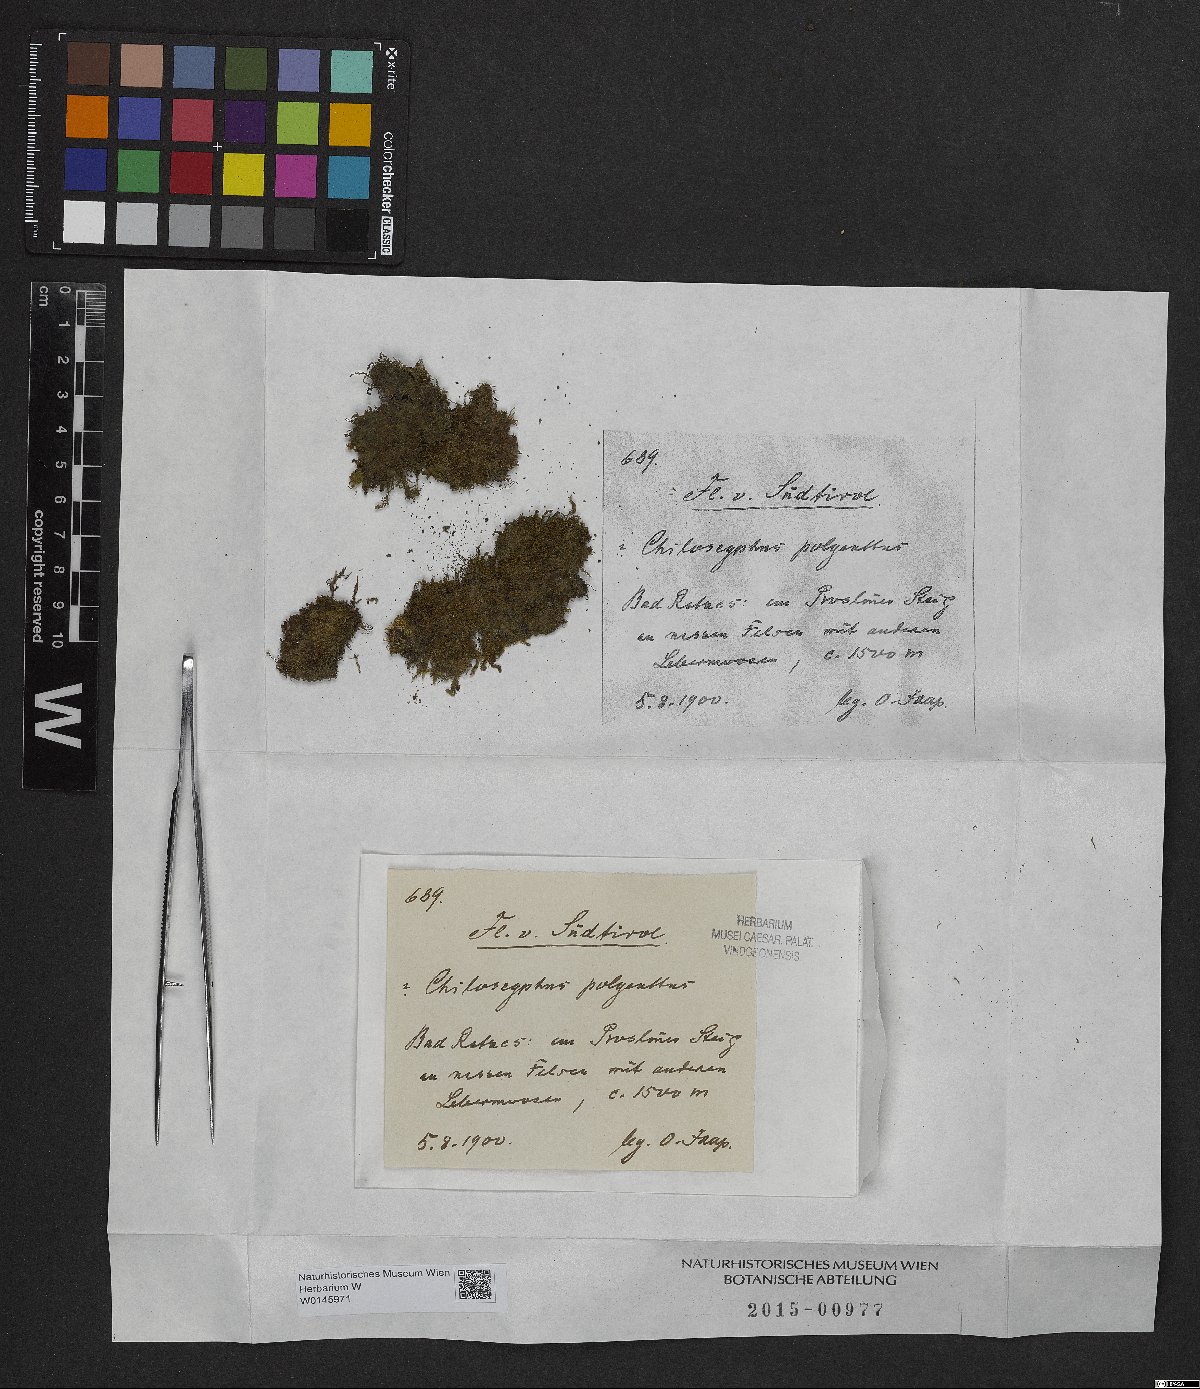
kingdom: Plantae
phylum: Marchantiophyta
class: Jungermanniopsida
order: Jungermanniales
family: Lophocoleaceae
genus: Chiloscyphus
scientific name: Chiloscyphus polyanthos
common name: Square-leaved crestwort
